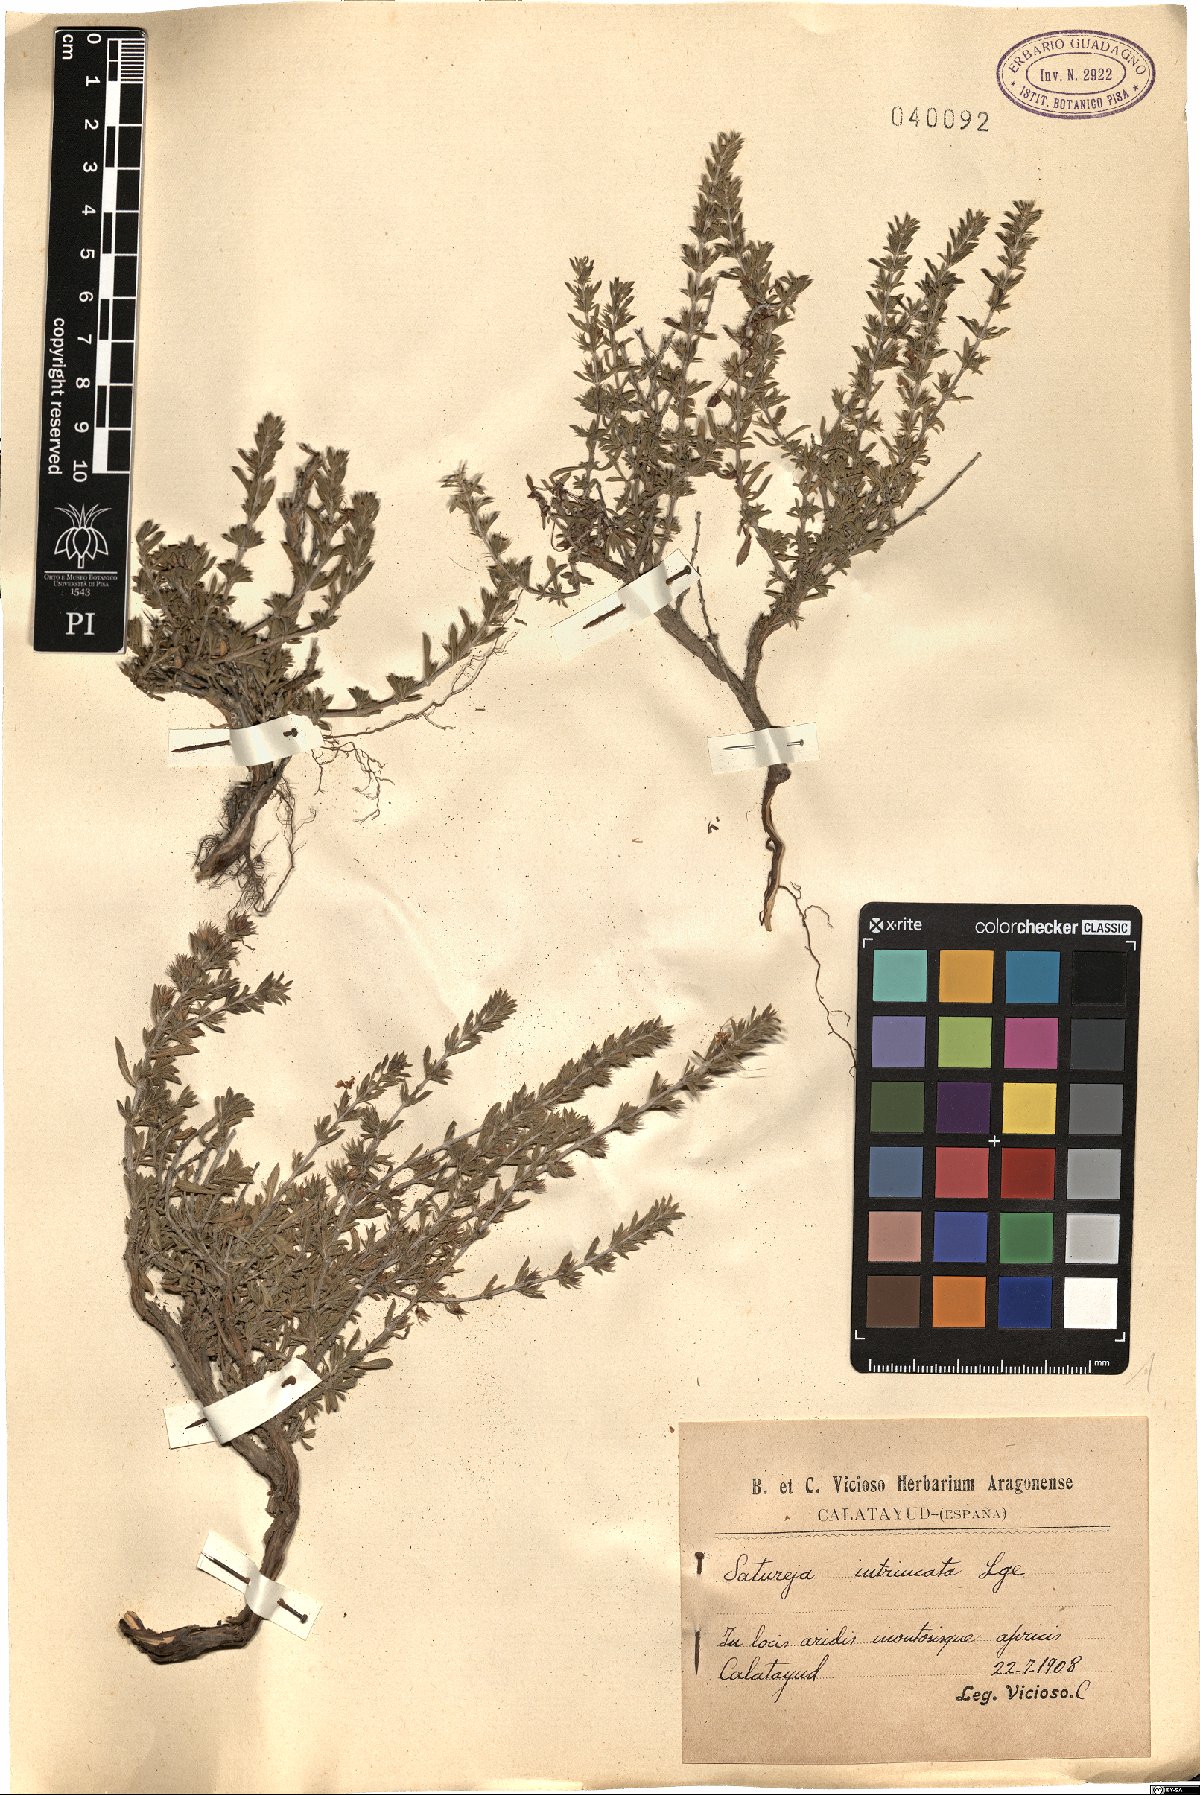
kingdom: Plantae
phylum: Tracheophyta
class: Magnoliopsida
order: Lamiales
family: Lamiaceae
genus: Satureja
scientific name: Satureja intricata
